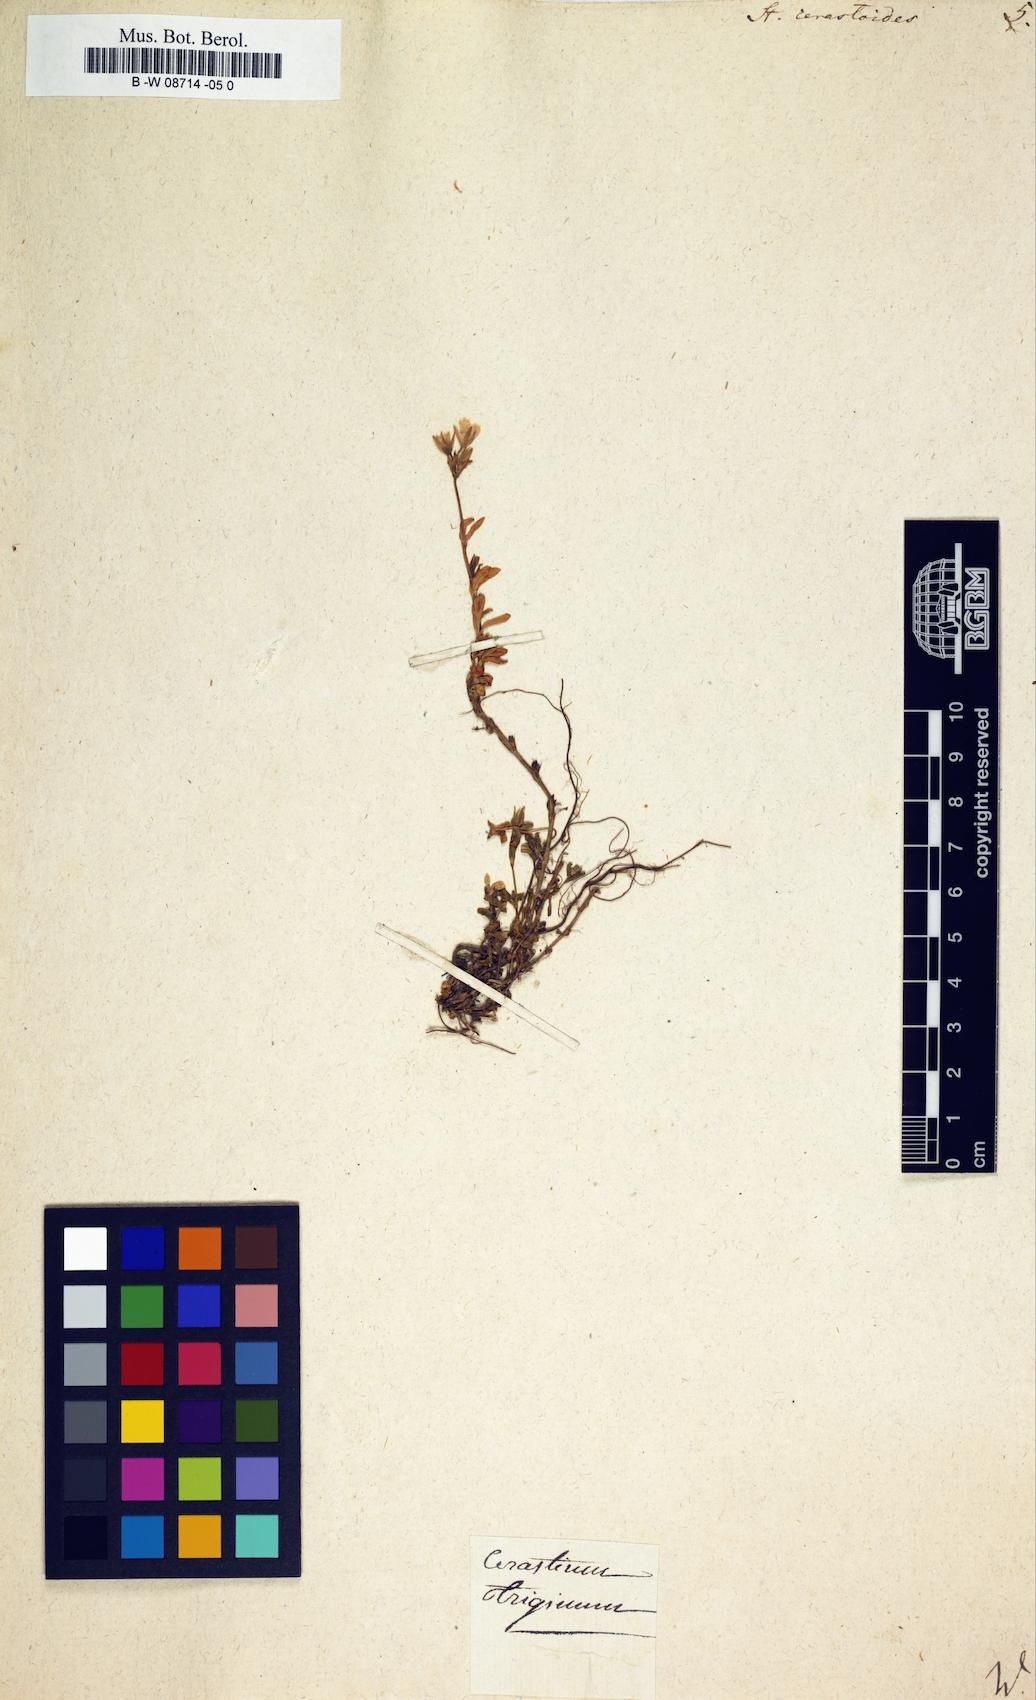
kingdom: Plantae
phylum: Tracheophyta
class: Magnoliopsida
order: Caryophyllales
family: Caryophyllaceae
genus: Stellaria
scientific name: Stellaria cerastoides
